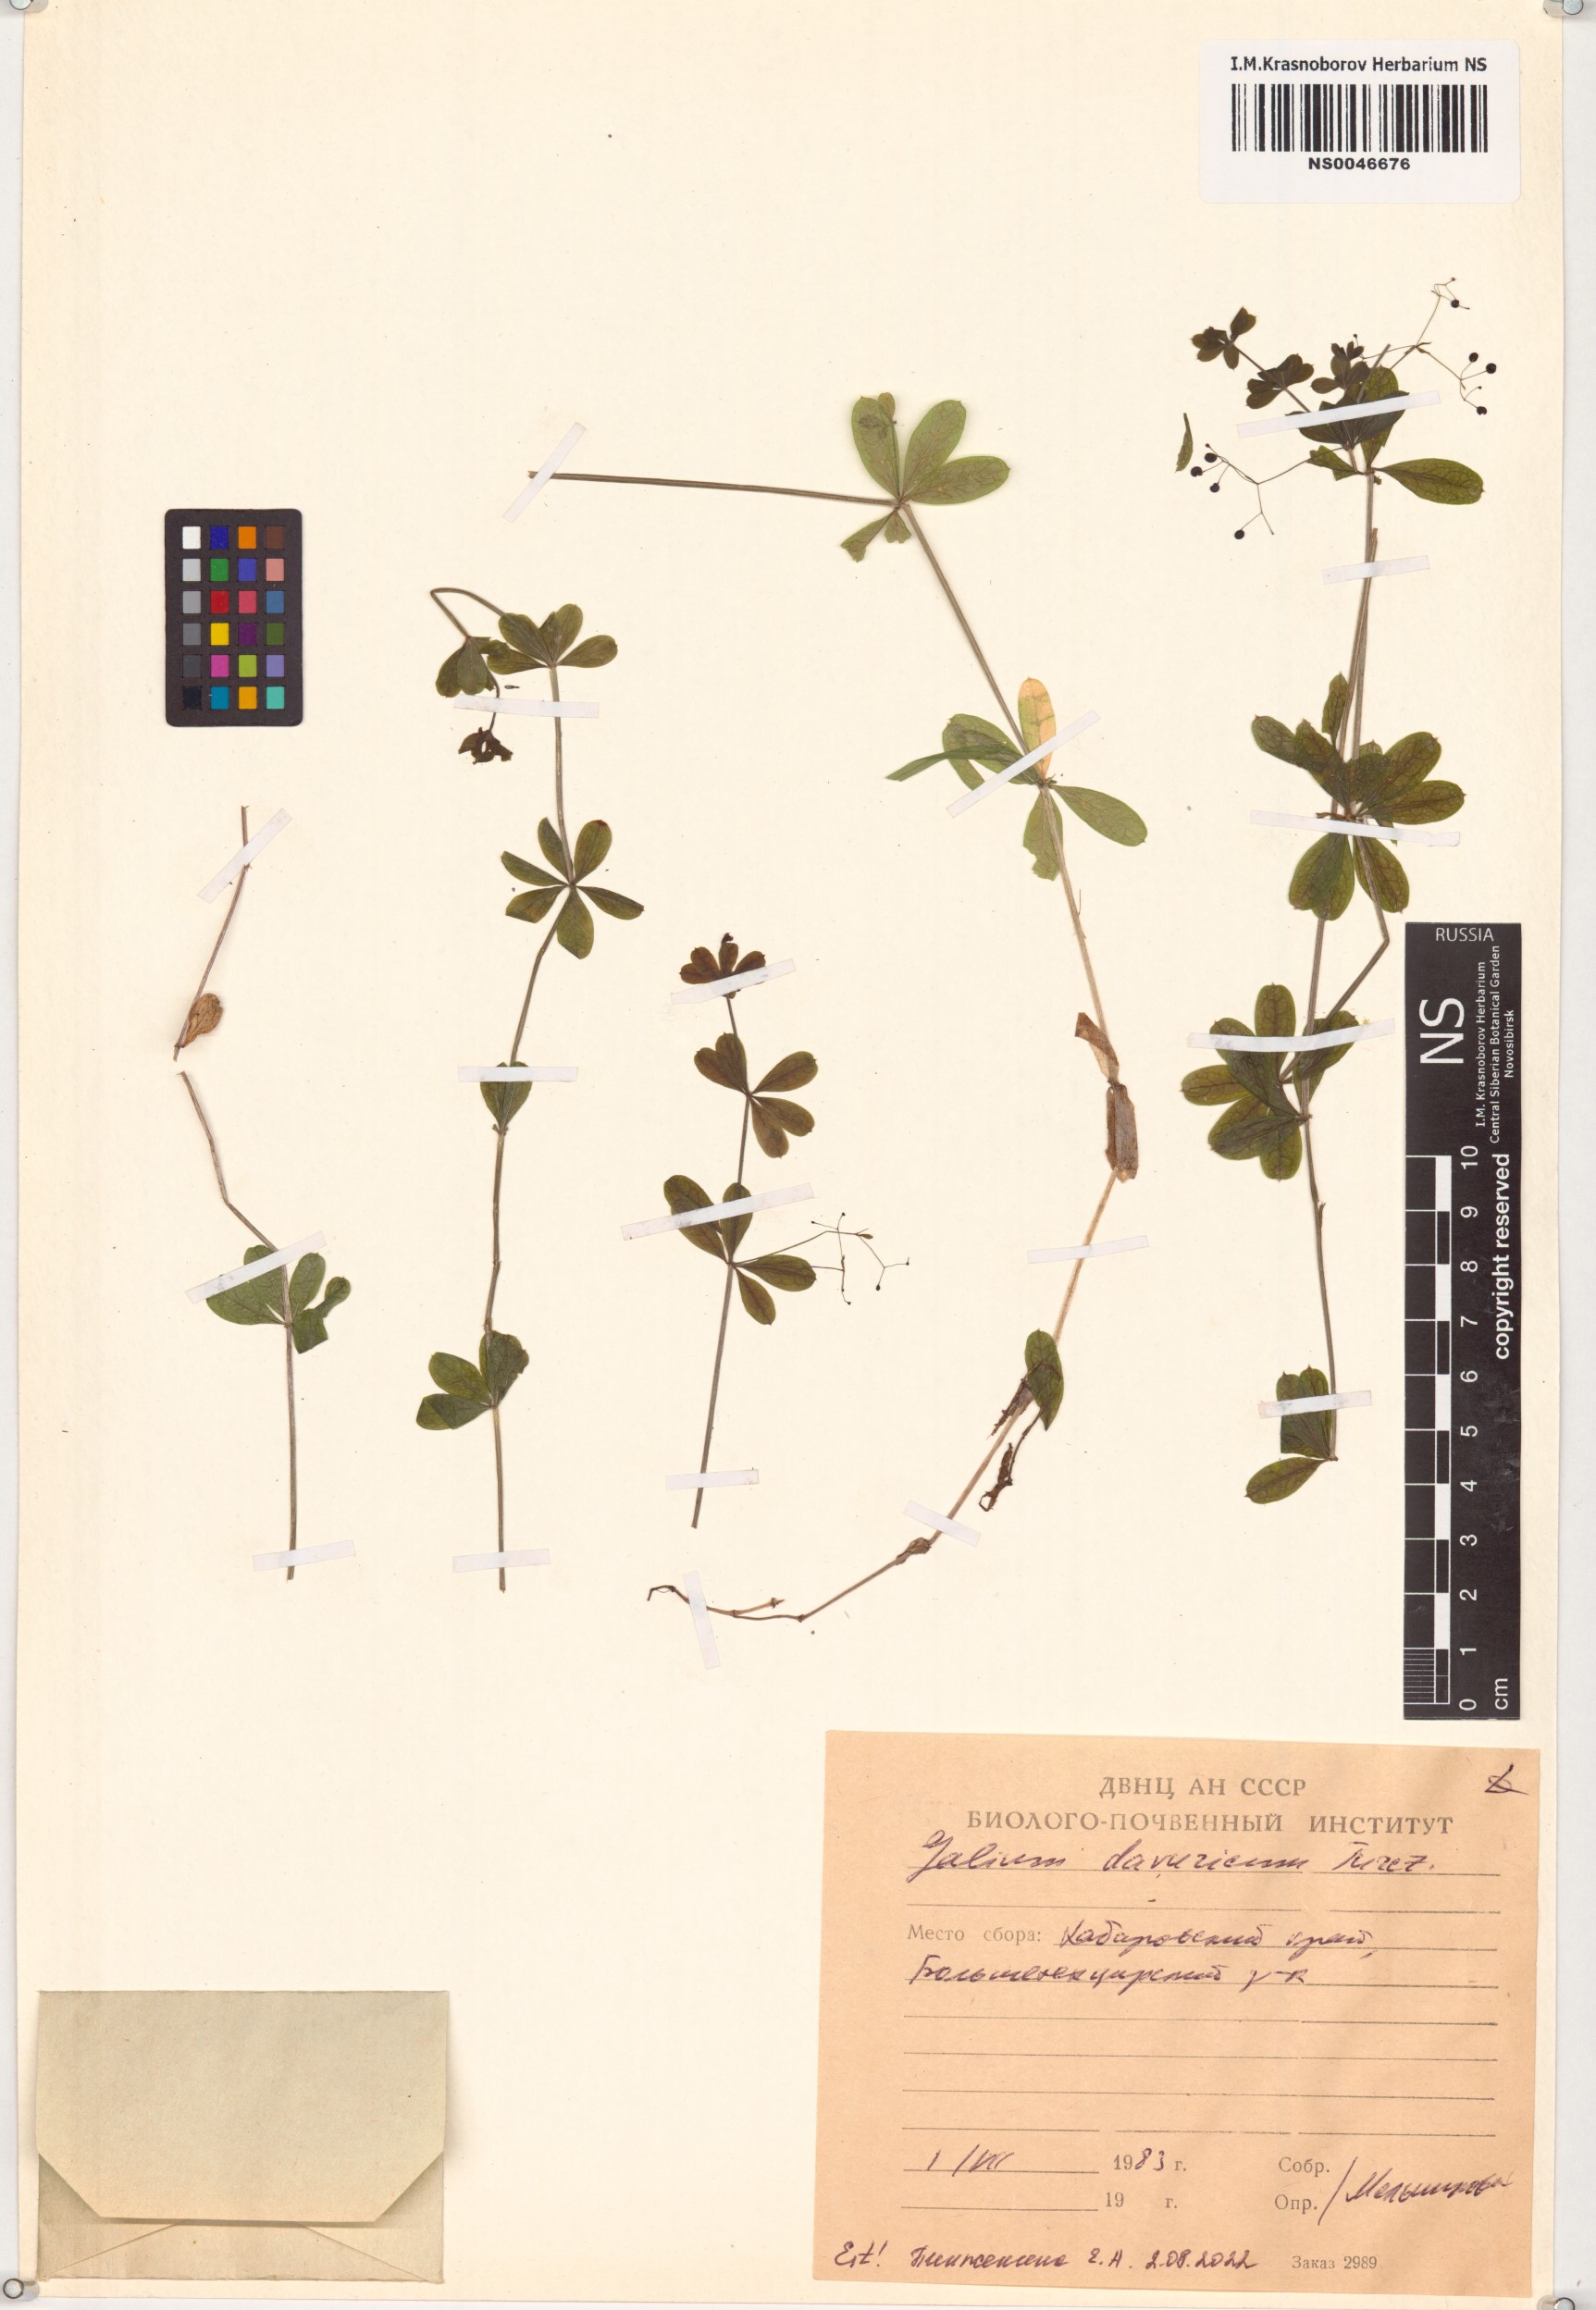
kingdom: Plantae
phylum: Tracheophyta
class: Magnoliopsida
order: Gentianales
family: Rubiaceae
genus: Galium
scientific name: Galium dahuricum
